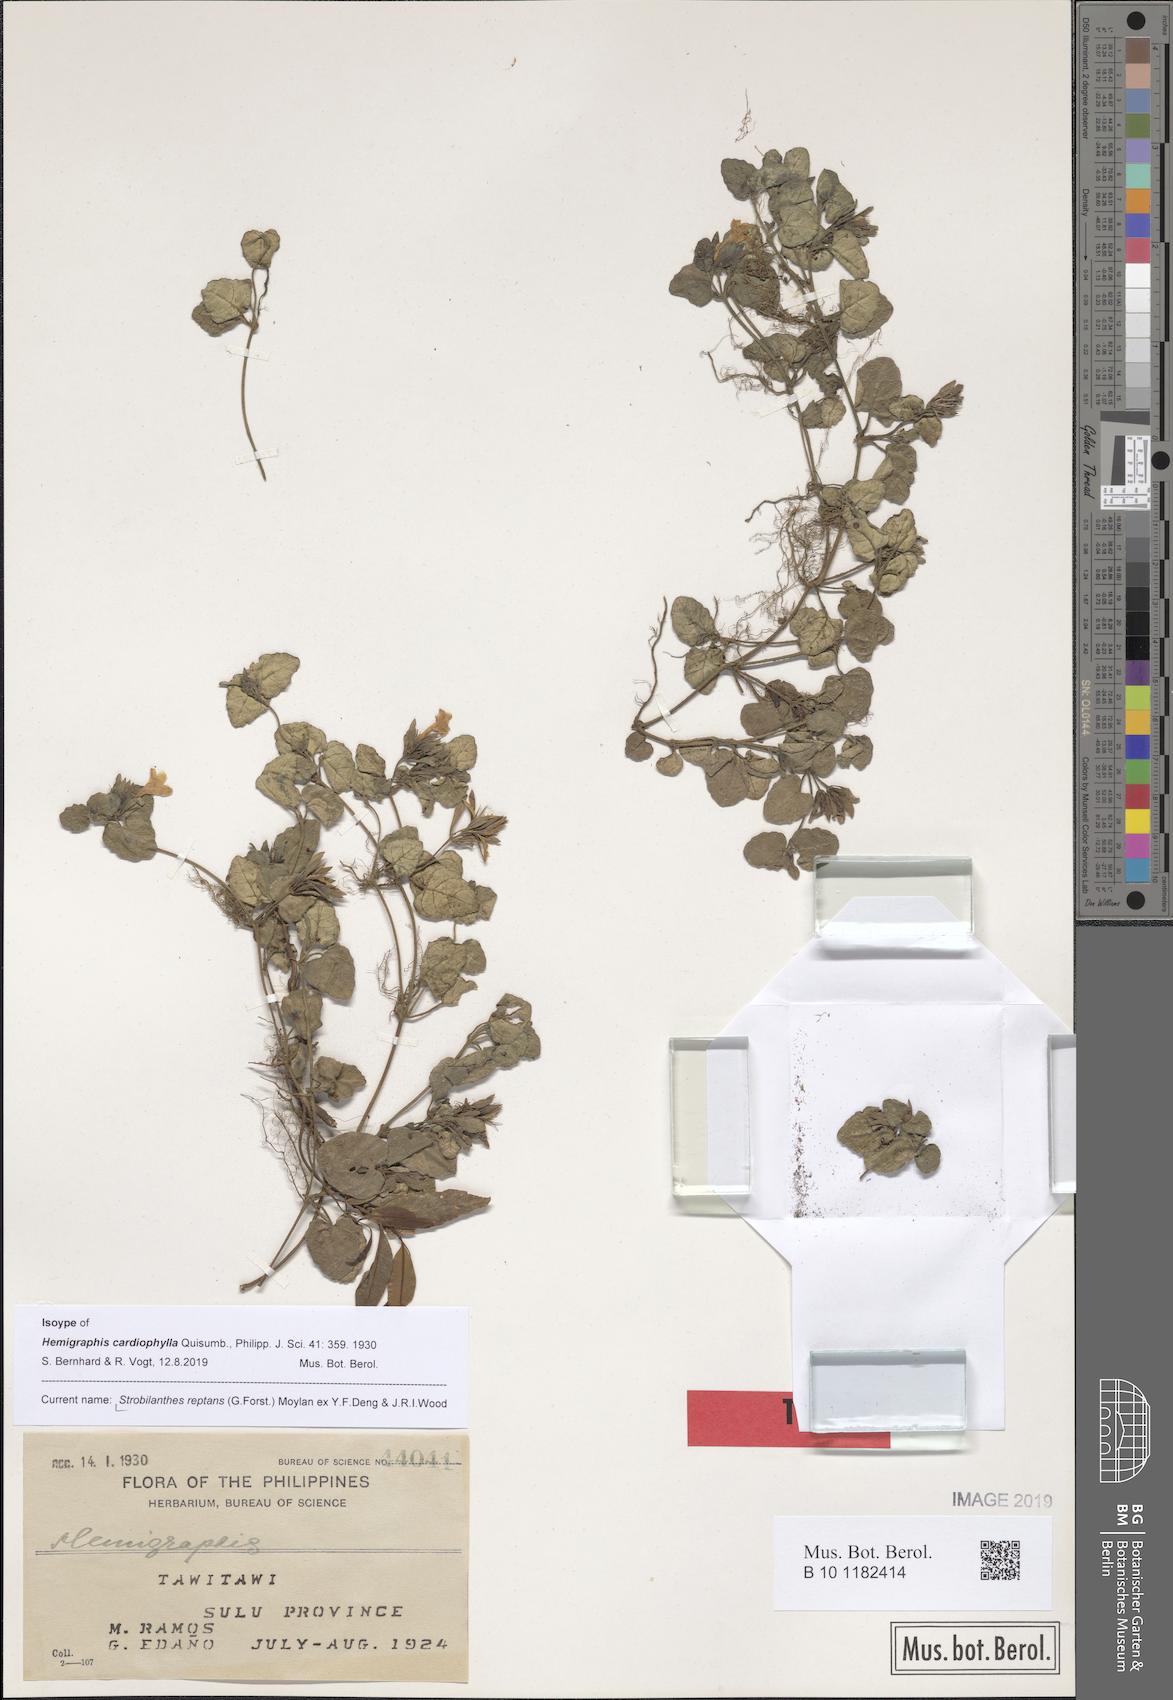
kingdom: Plantae
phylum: Tracheophyta
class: Magnoliopsida
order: Lamiales
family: Acanthaceae
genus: Strobilanthes
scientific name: Strobilanthes reptans
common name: Acanthaceae
